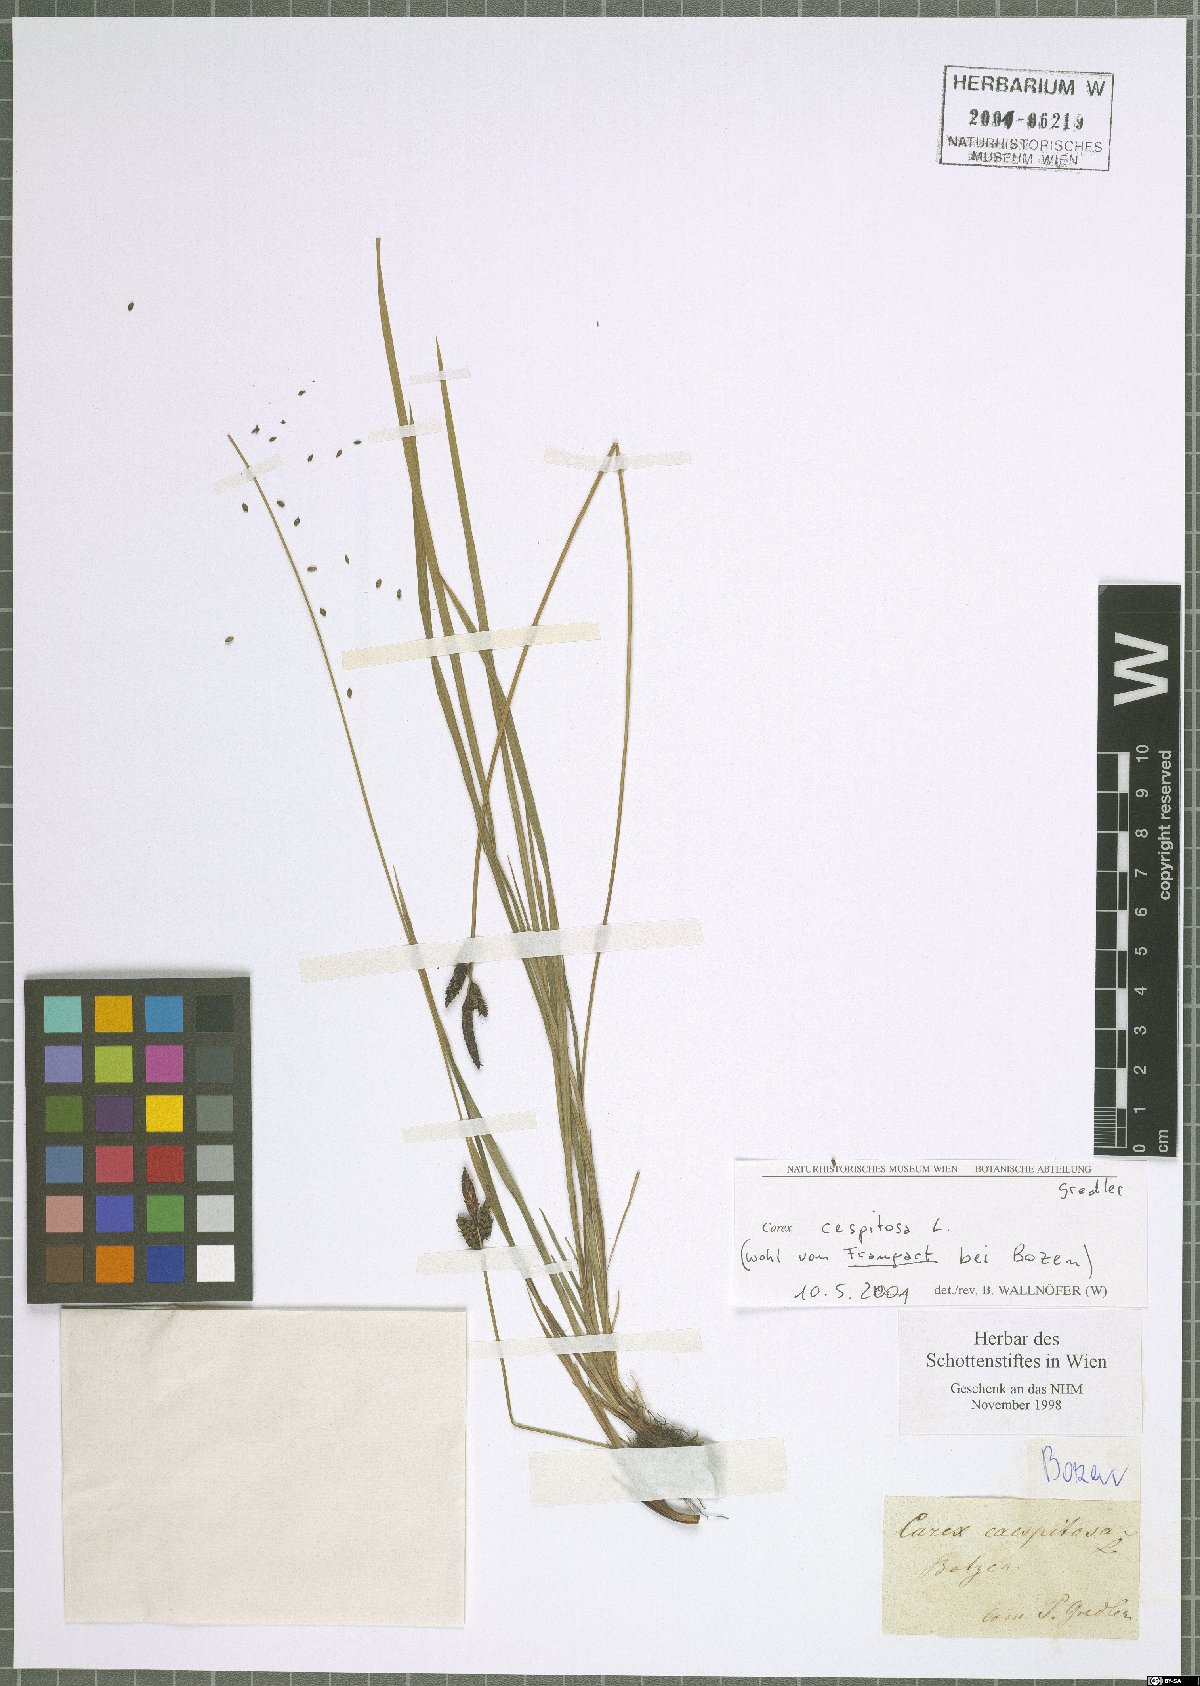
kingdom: Plantae
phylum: Tracheophyta
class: Liliopsida
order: Poales
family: Cyperaceae
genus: Carex
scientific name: Carex cespitosa
